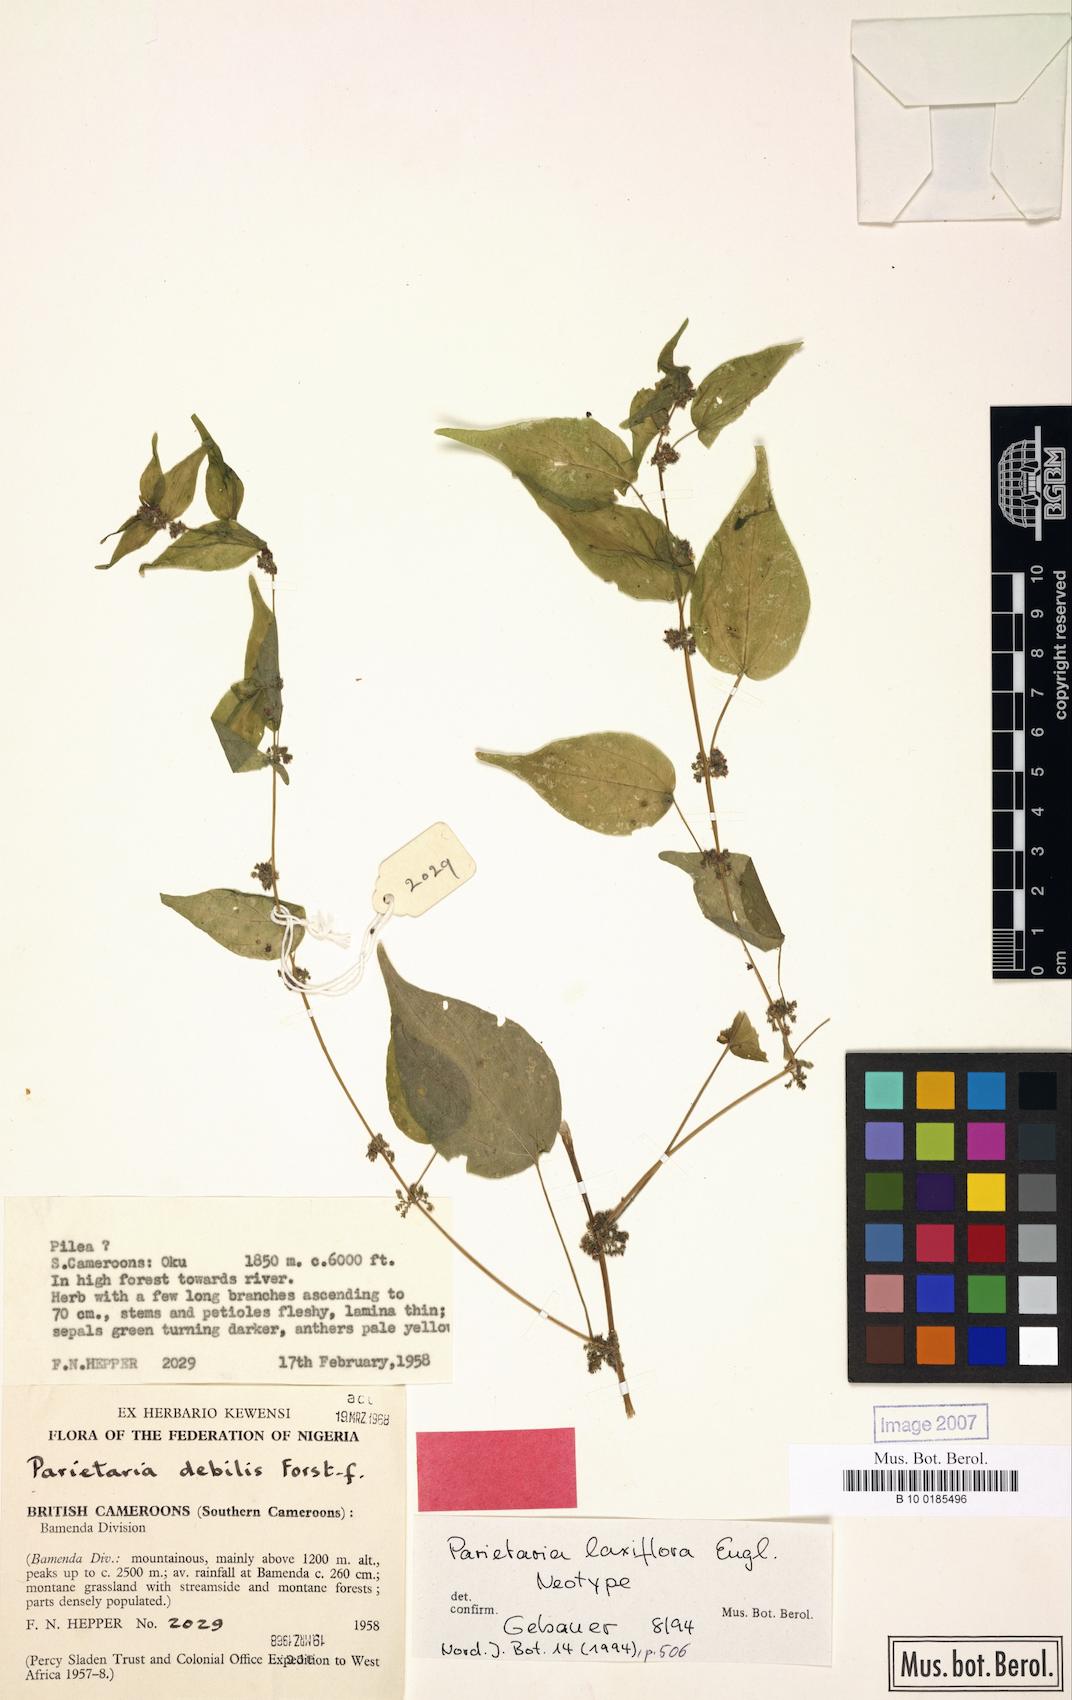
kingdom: Plantae
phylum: Tracheophyta
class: Magnoliopsida
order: Rosales
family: Urticaceae
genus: Parietaria
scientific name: Parietaria laxiflora
